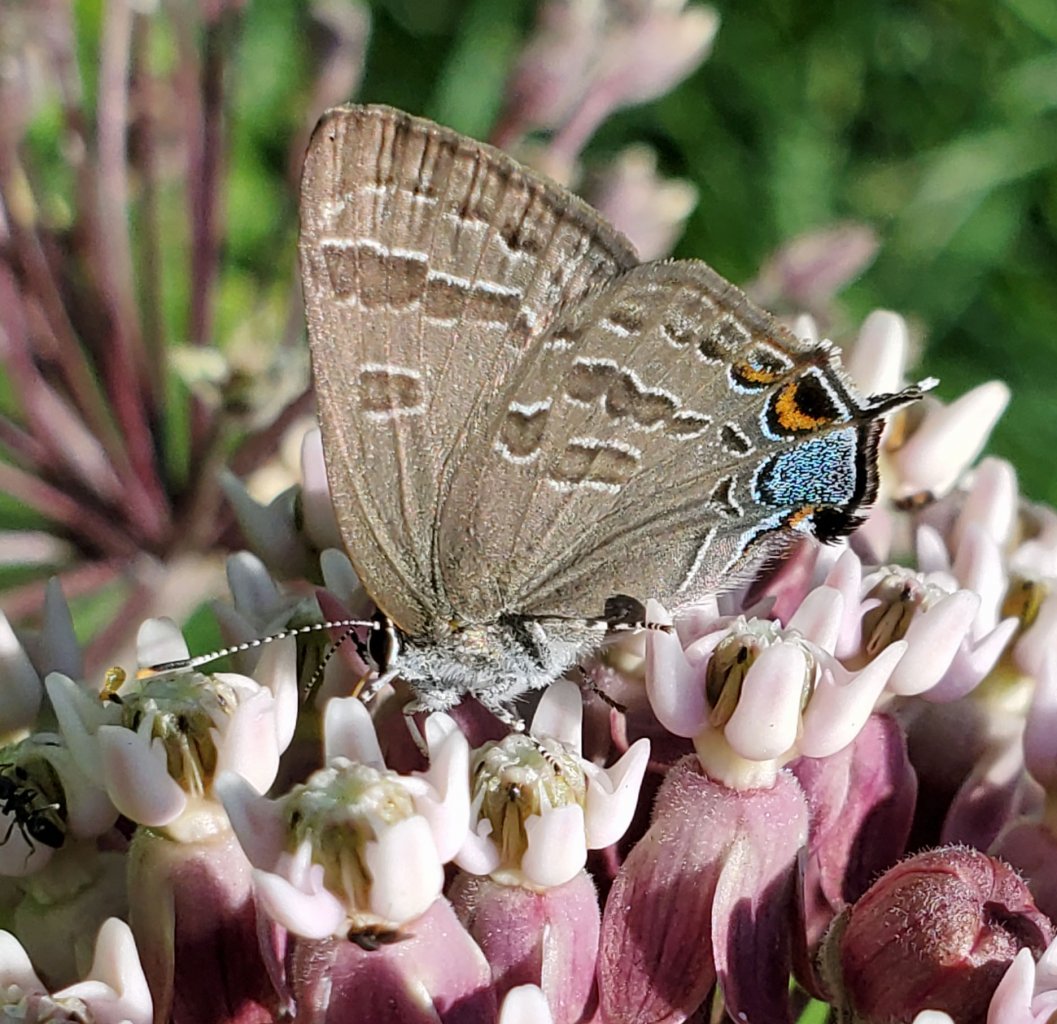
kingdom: Animalia
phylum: Arthropoda
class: Insecta
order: Lepidoptera
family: Lycaenidae
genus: Strymon
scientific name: Strymon caryaevorus
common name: Hickory Hairstreak
